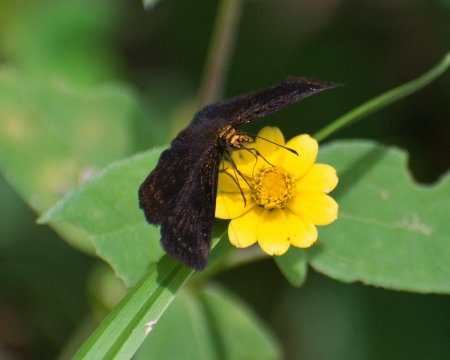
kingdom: Animalia
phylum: Arthropoda
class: Insecta
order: Lepidoptera
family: Hesperiidae
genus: Staphylus
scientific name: Staphylus vulgata
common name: Golden-snouted Sootywing
